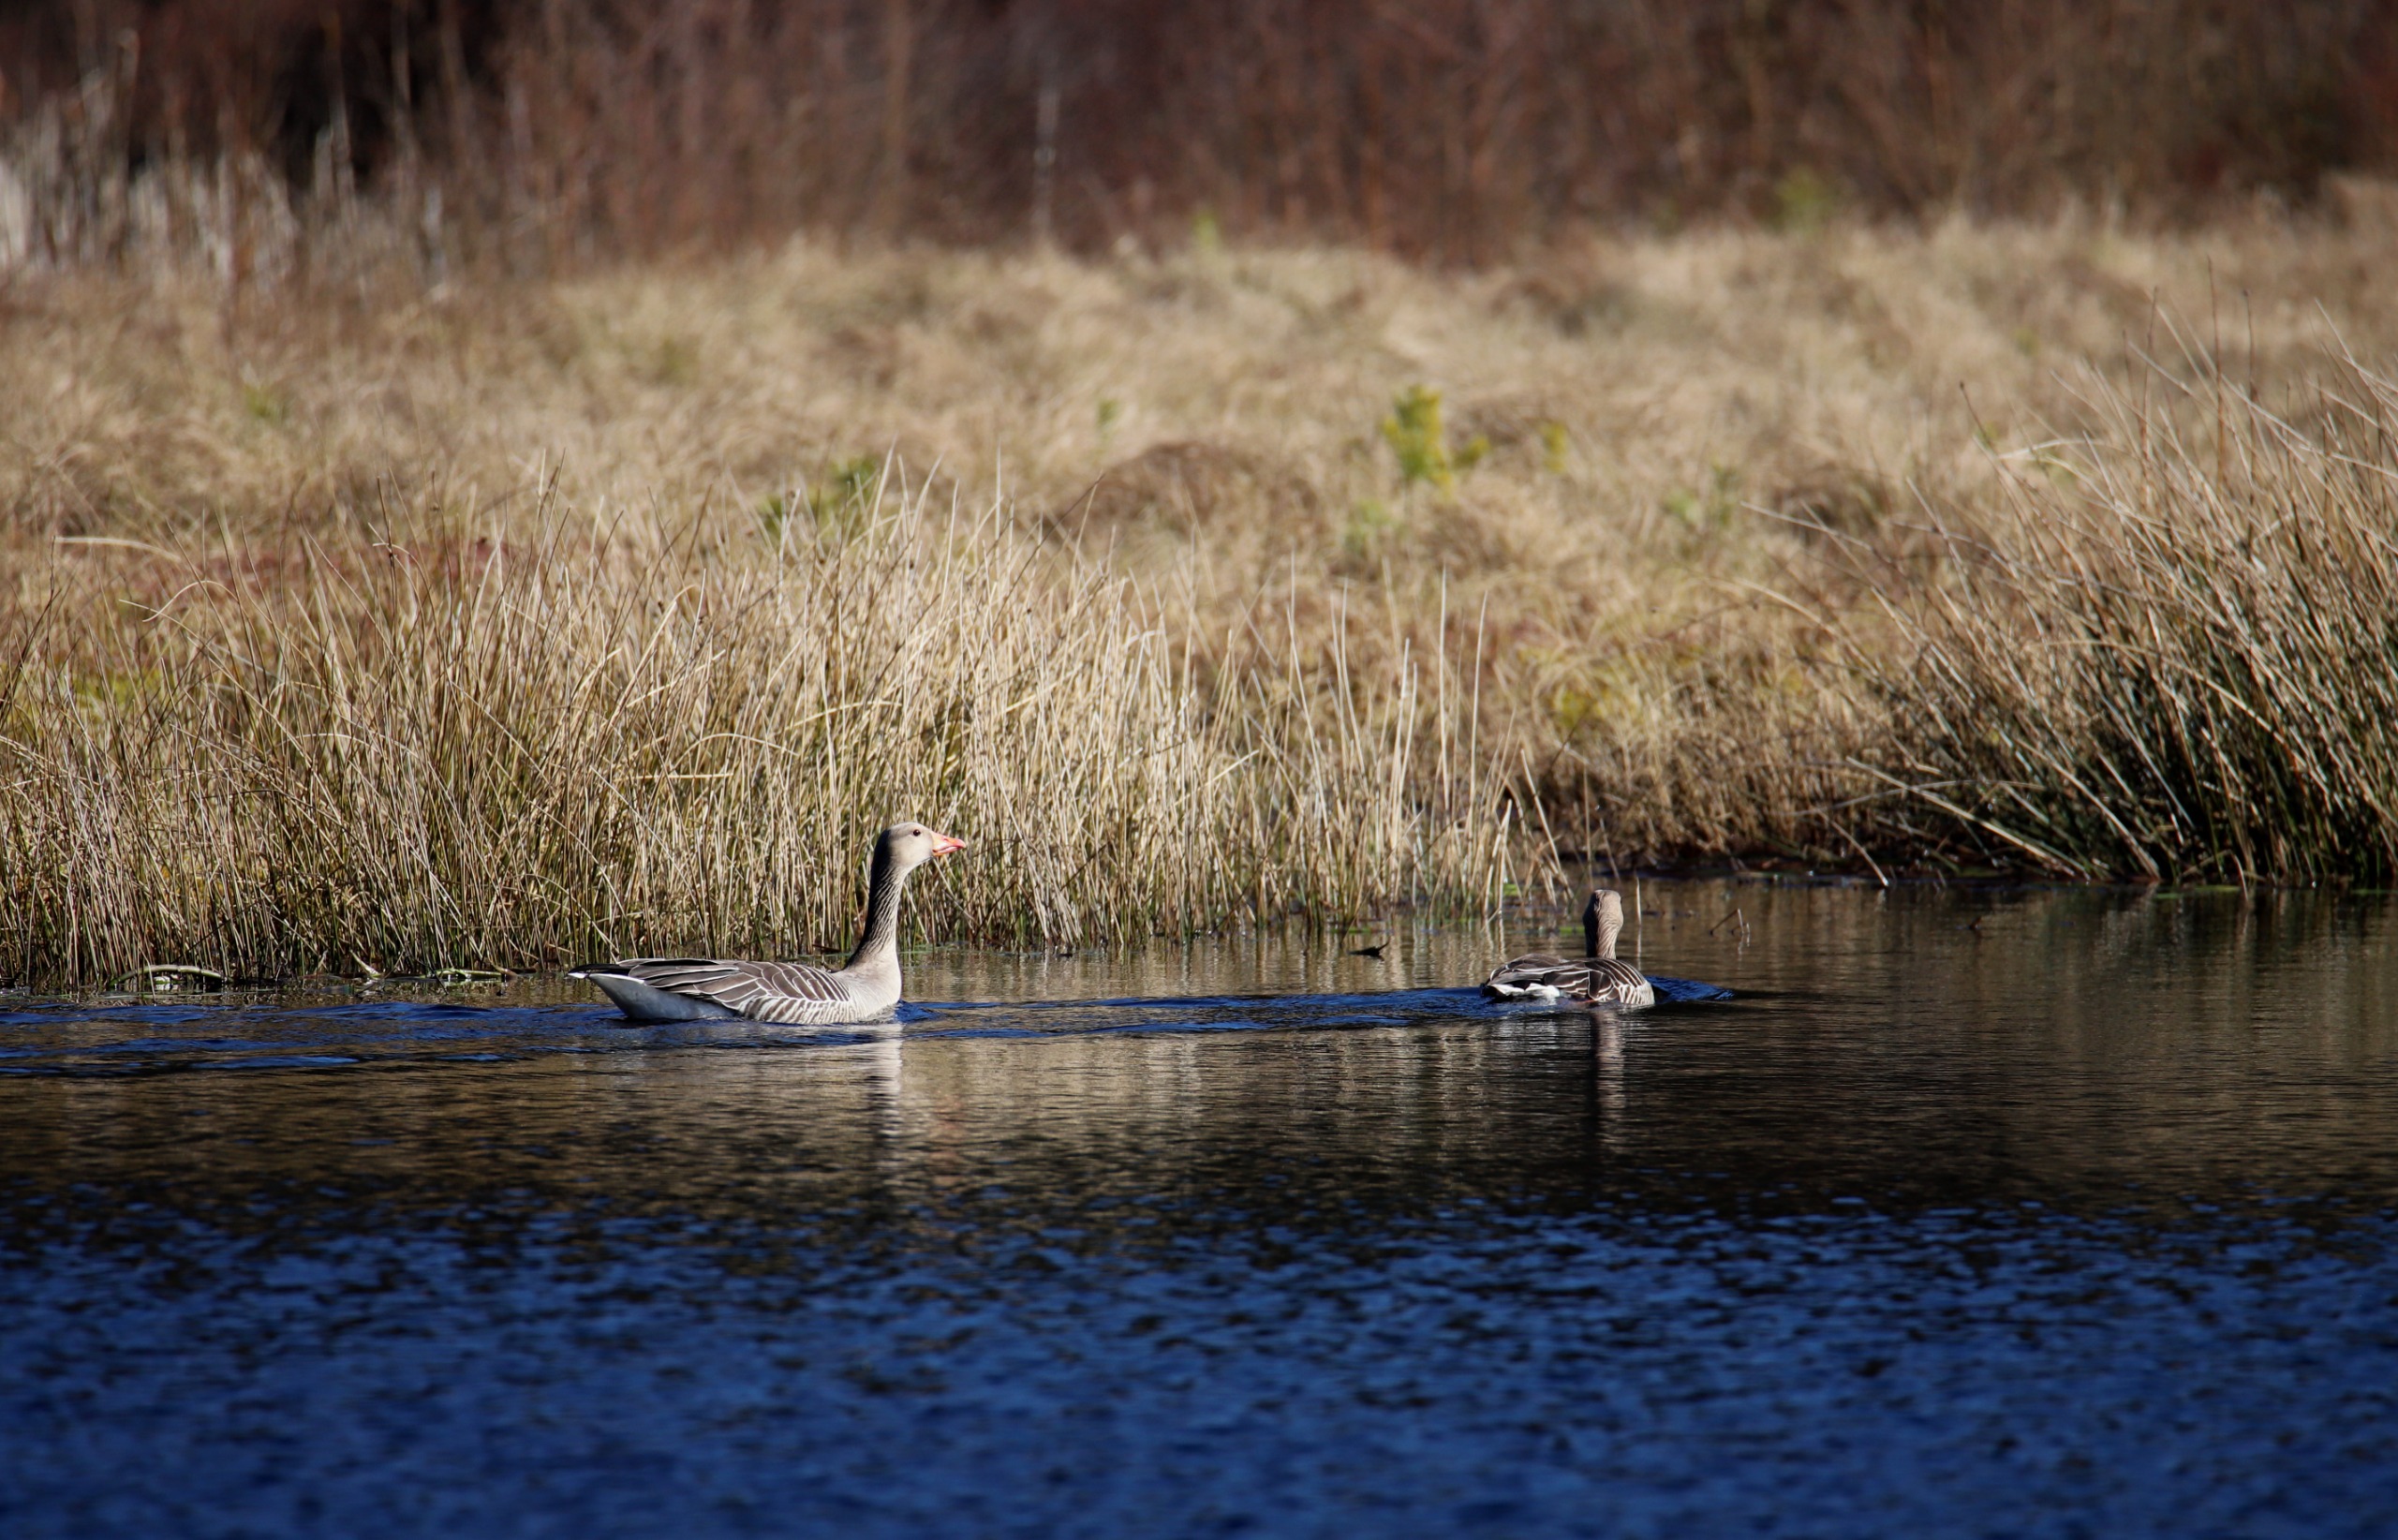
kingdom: Animalia
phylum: Chordata
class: Aves
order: Anseriformes
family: Anatidae
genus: Anser
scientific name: Anser anser
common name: Grågås
